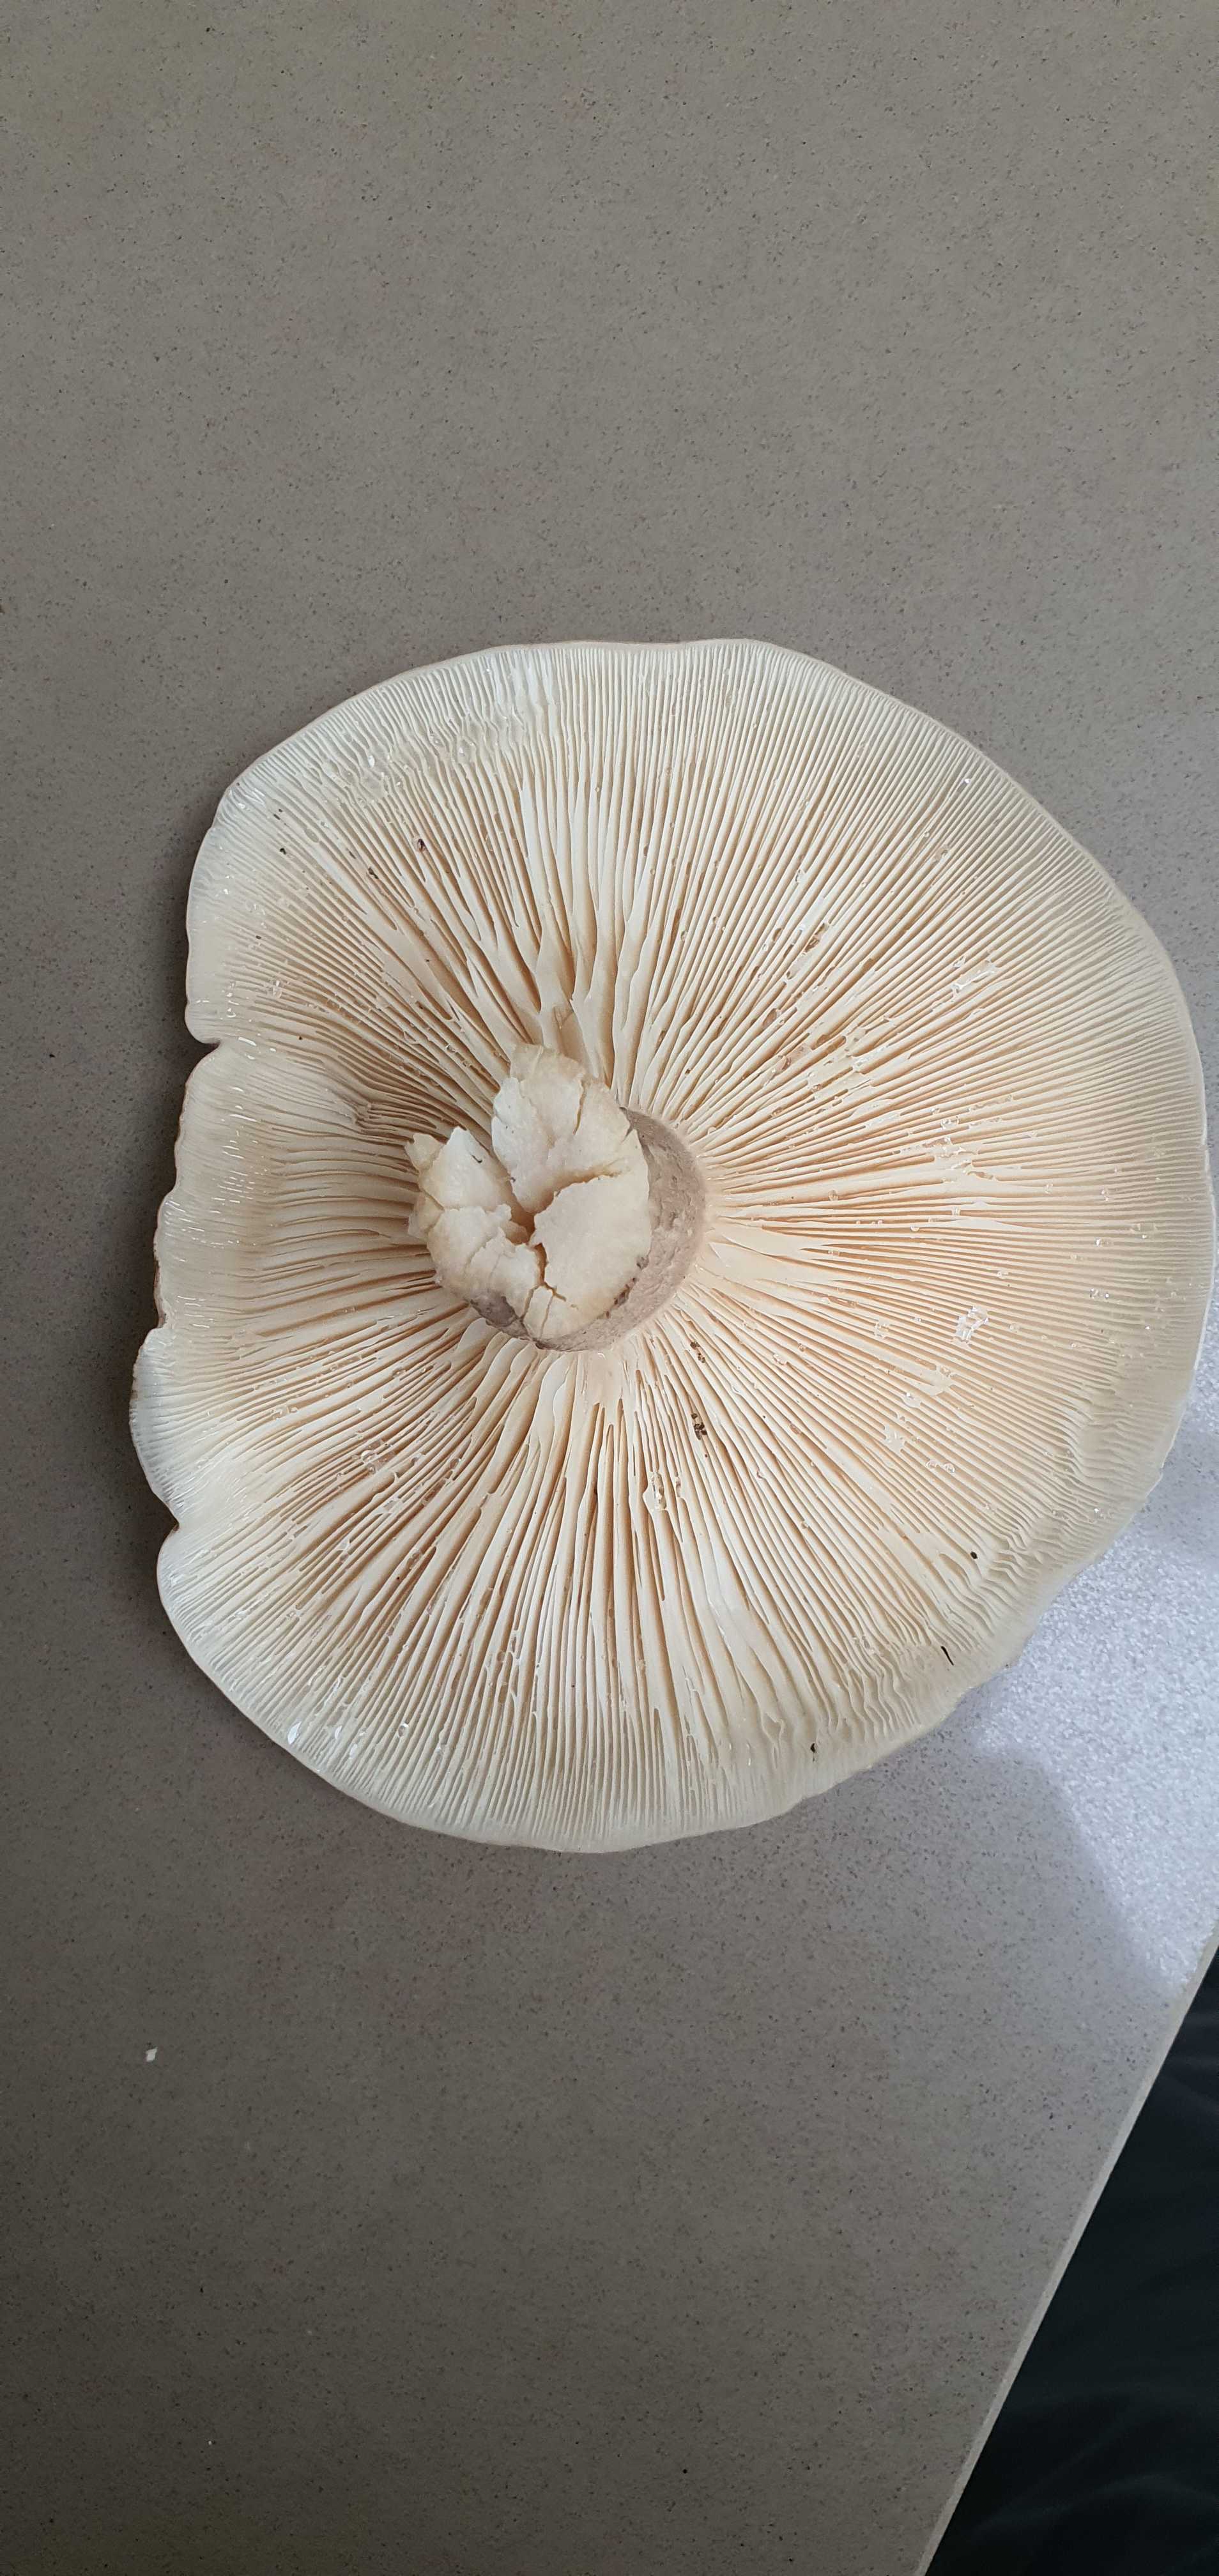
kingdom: Fungi
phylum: Basidiomycota
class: Agaricomycetes
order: Agaricales
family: Tricholomataceae
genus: Clitocybe
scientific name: Clitocybe nebularis
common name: tåge-tragthat
